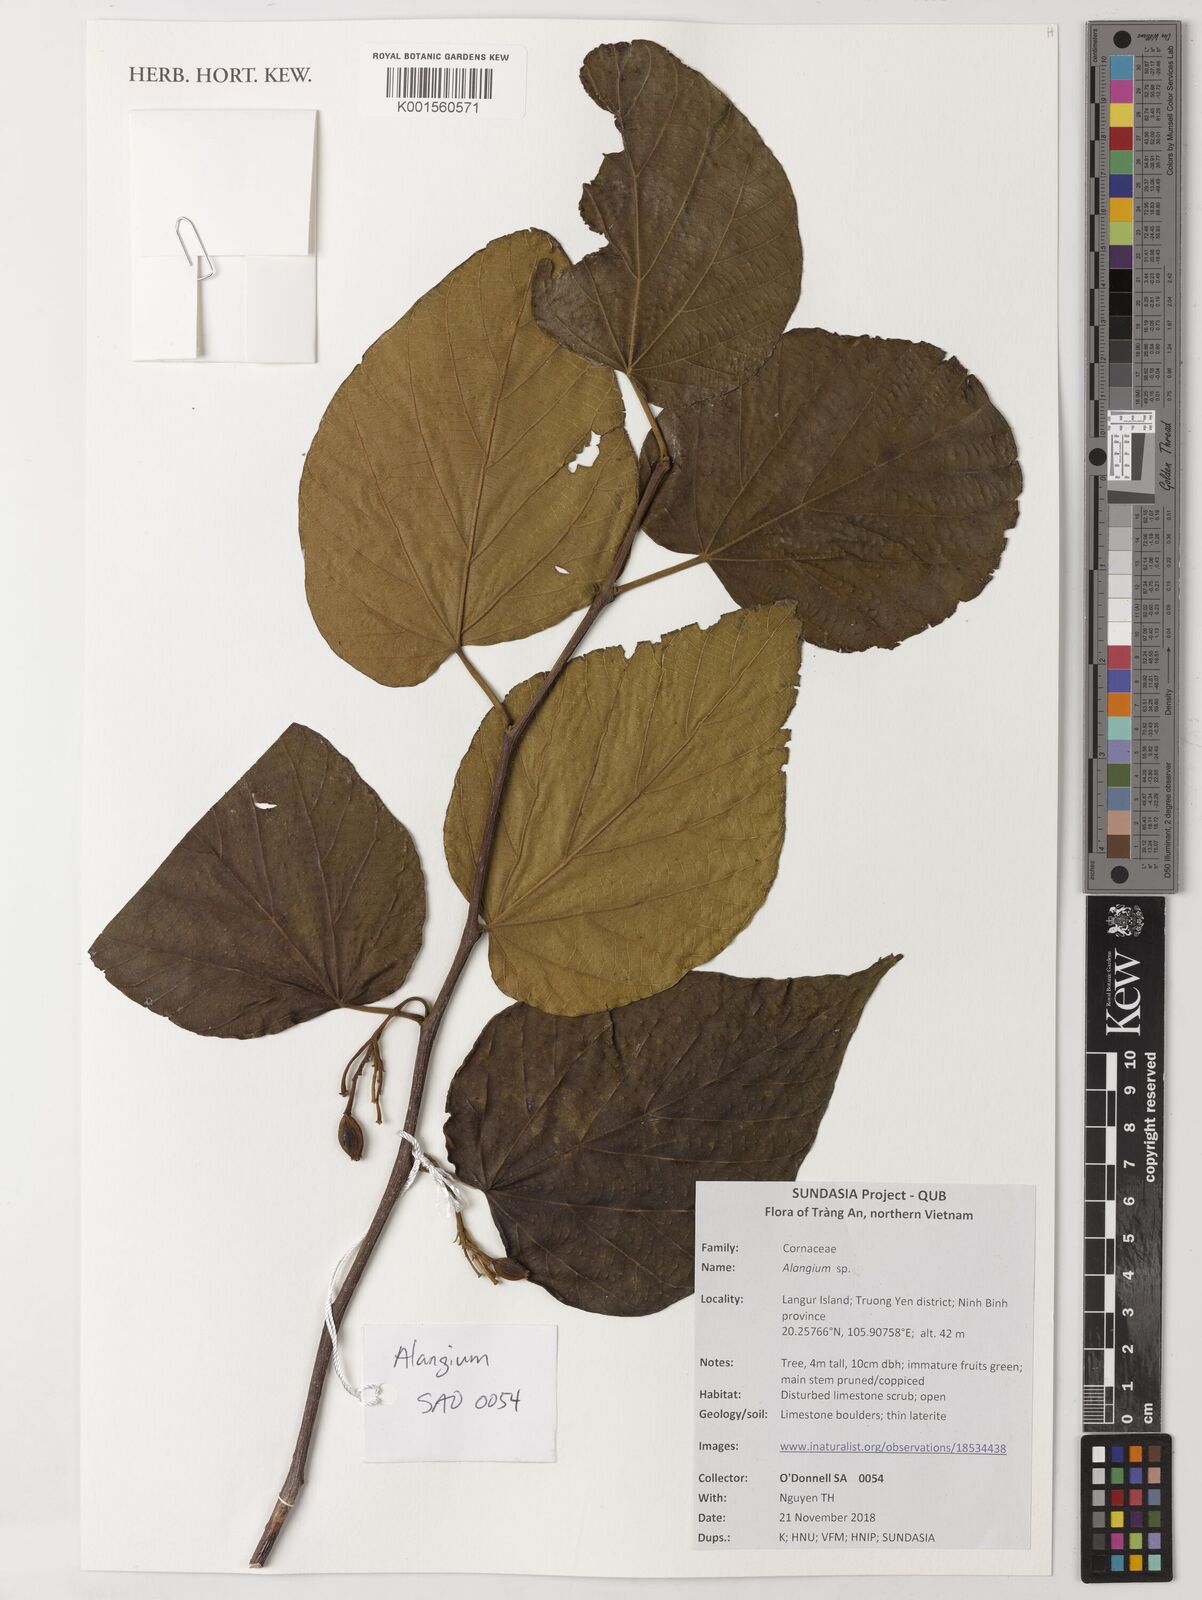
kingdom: Plantae
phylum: Tracheophyta
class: Magnoliopsida
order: Cornales
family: Cornaceae
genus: Alangium
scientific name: Alangium
